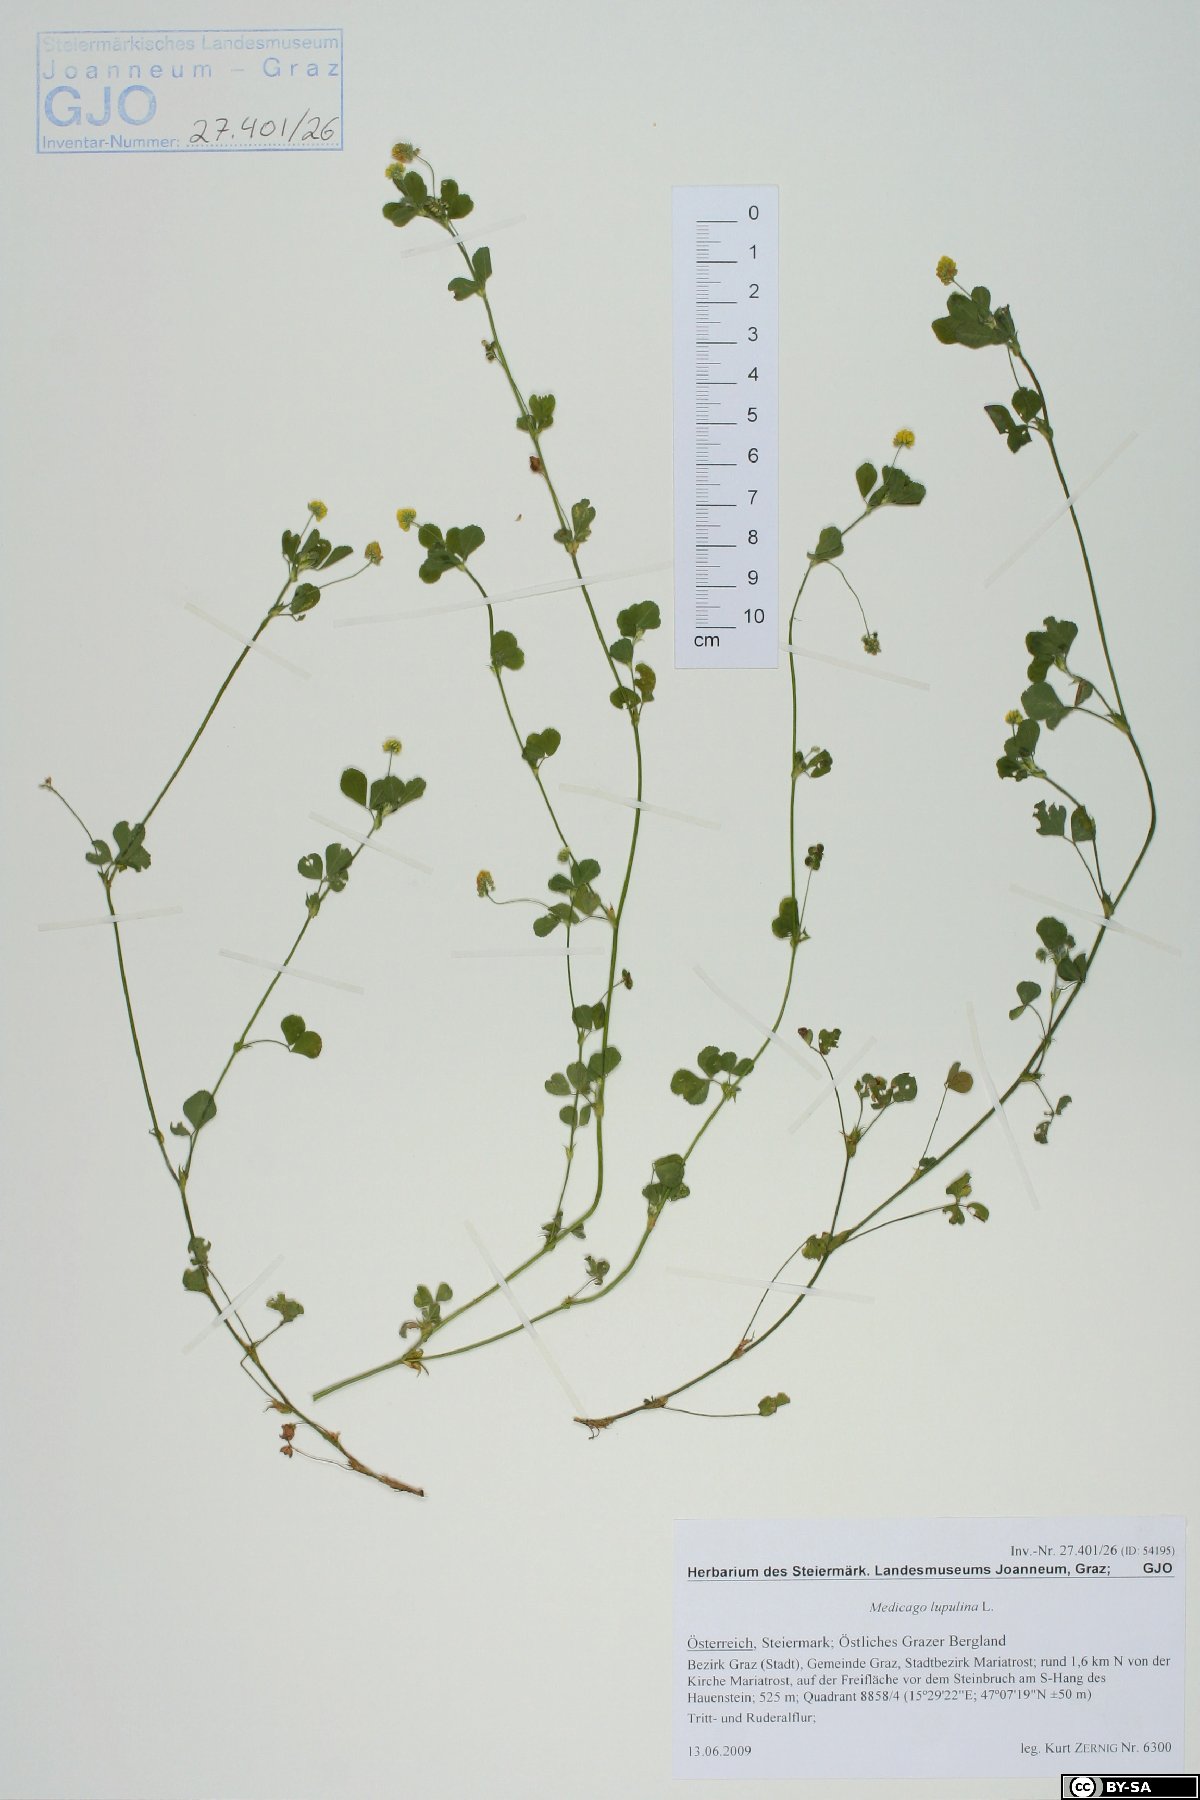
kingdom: Plantae
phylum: Tracheophyta
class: Magnoliopsida
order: Fabales
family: Fabaceae
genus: Medicago
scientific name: Medicago lupulina
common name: Black medick
